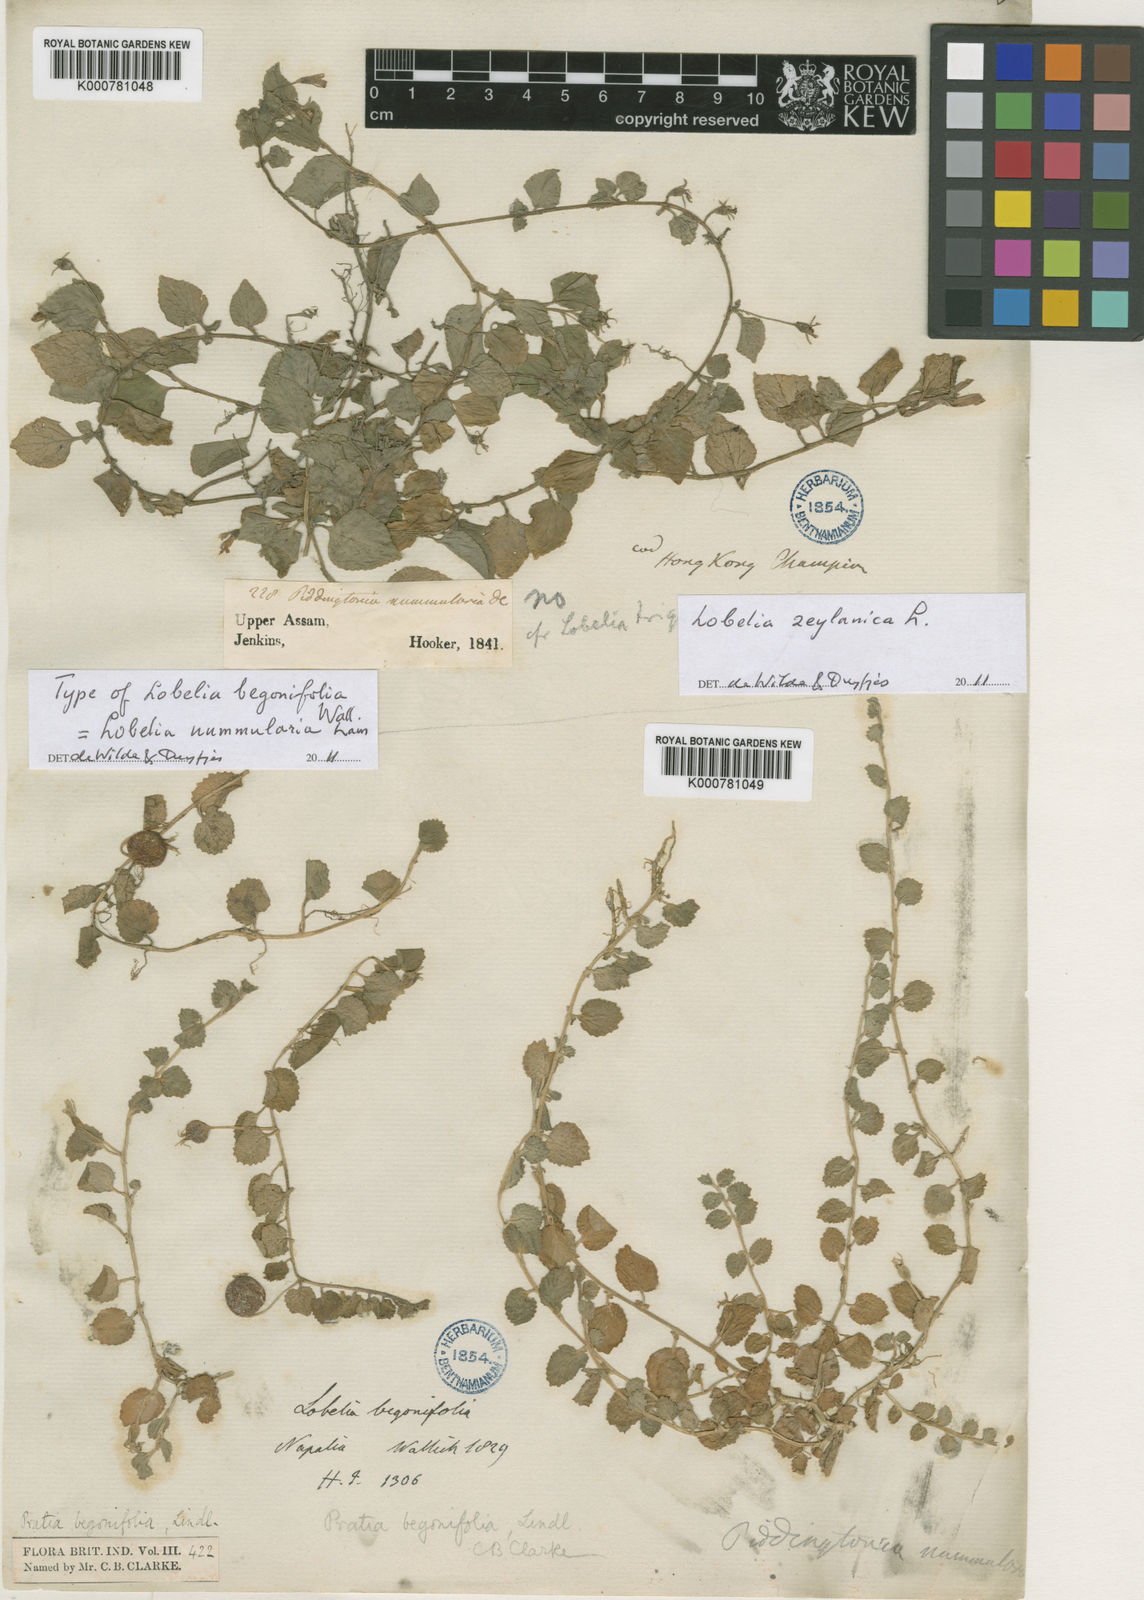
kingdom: Plantae
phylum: Tracheophyta
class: Magnoliopsida
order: Asterales
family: Campanulaceae
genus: Lobelia
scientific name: Lobelia angulata
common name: Lawn lobelia
